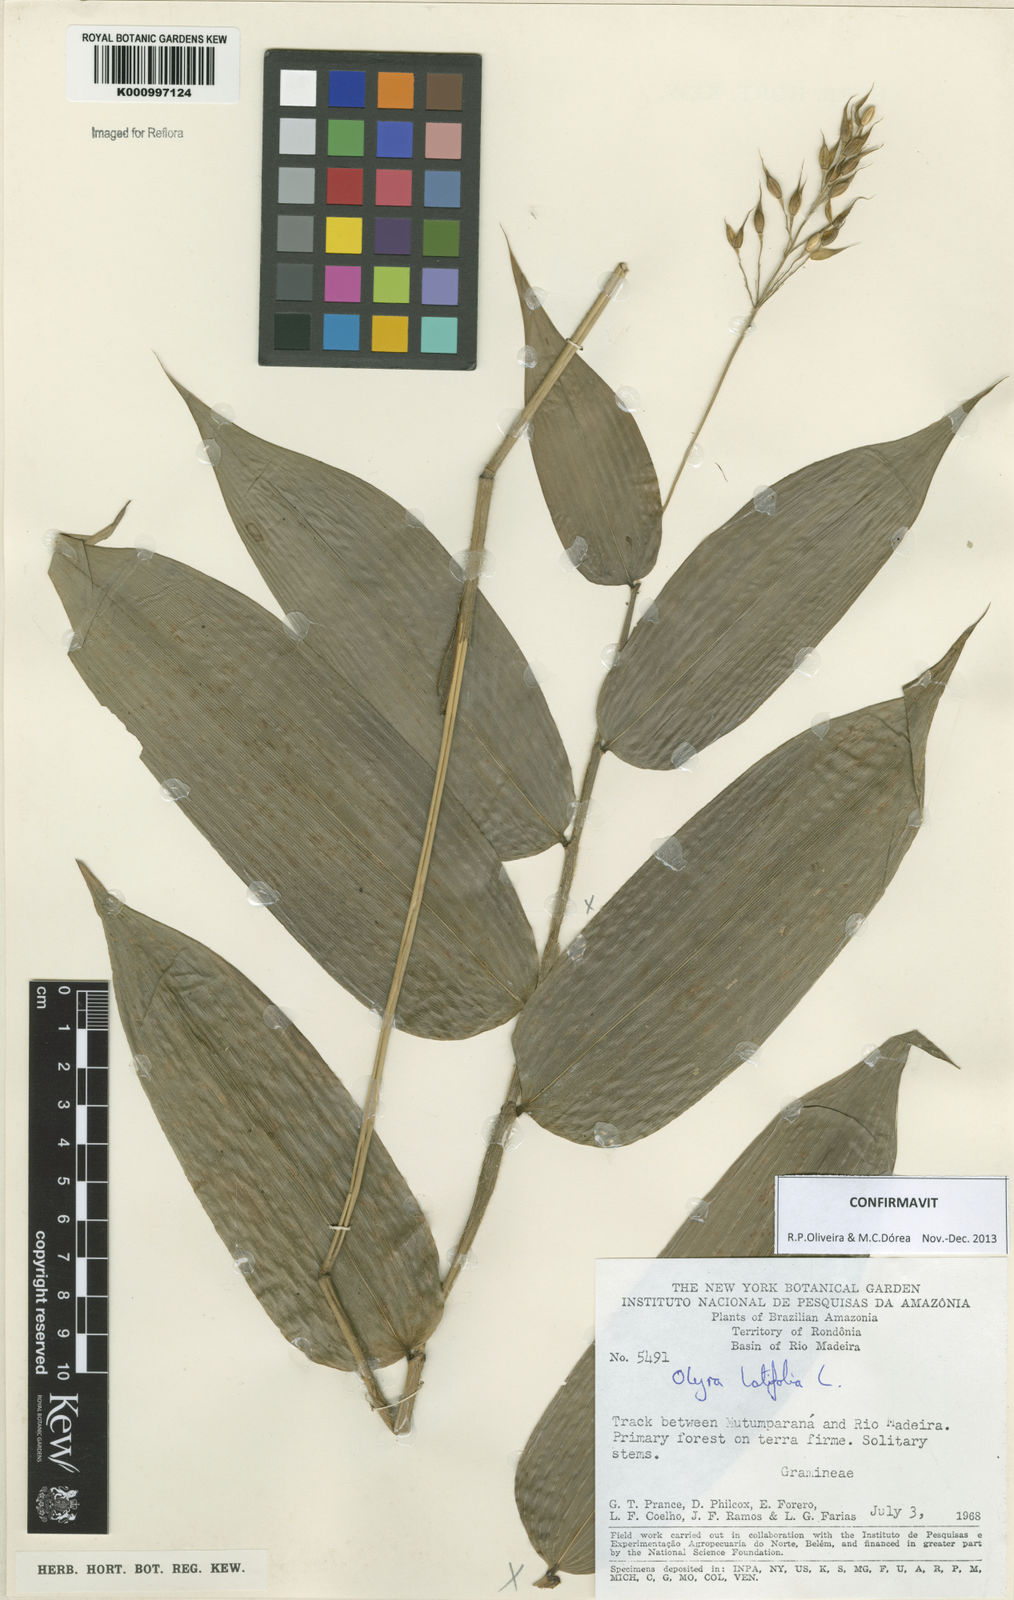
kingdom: Plantae
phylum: Tracheophyta
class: Liliopsida
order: Poales
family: Poaceae
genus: Olyra
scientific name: Olyra latifolia
